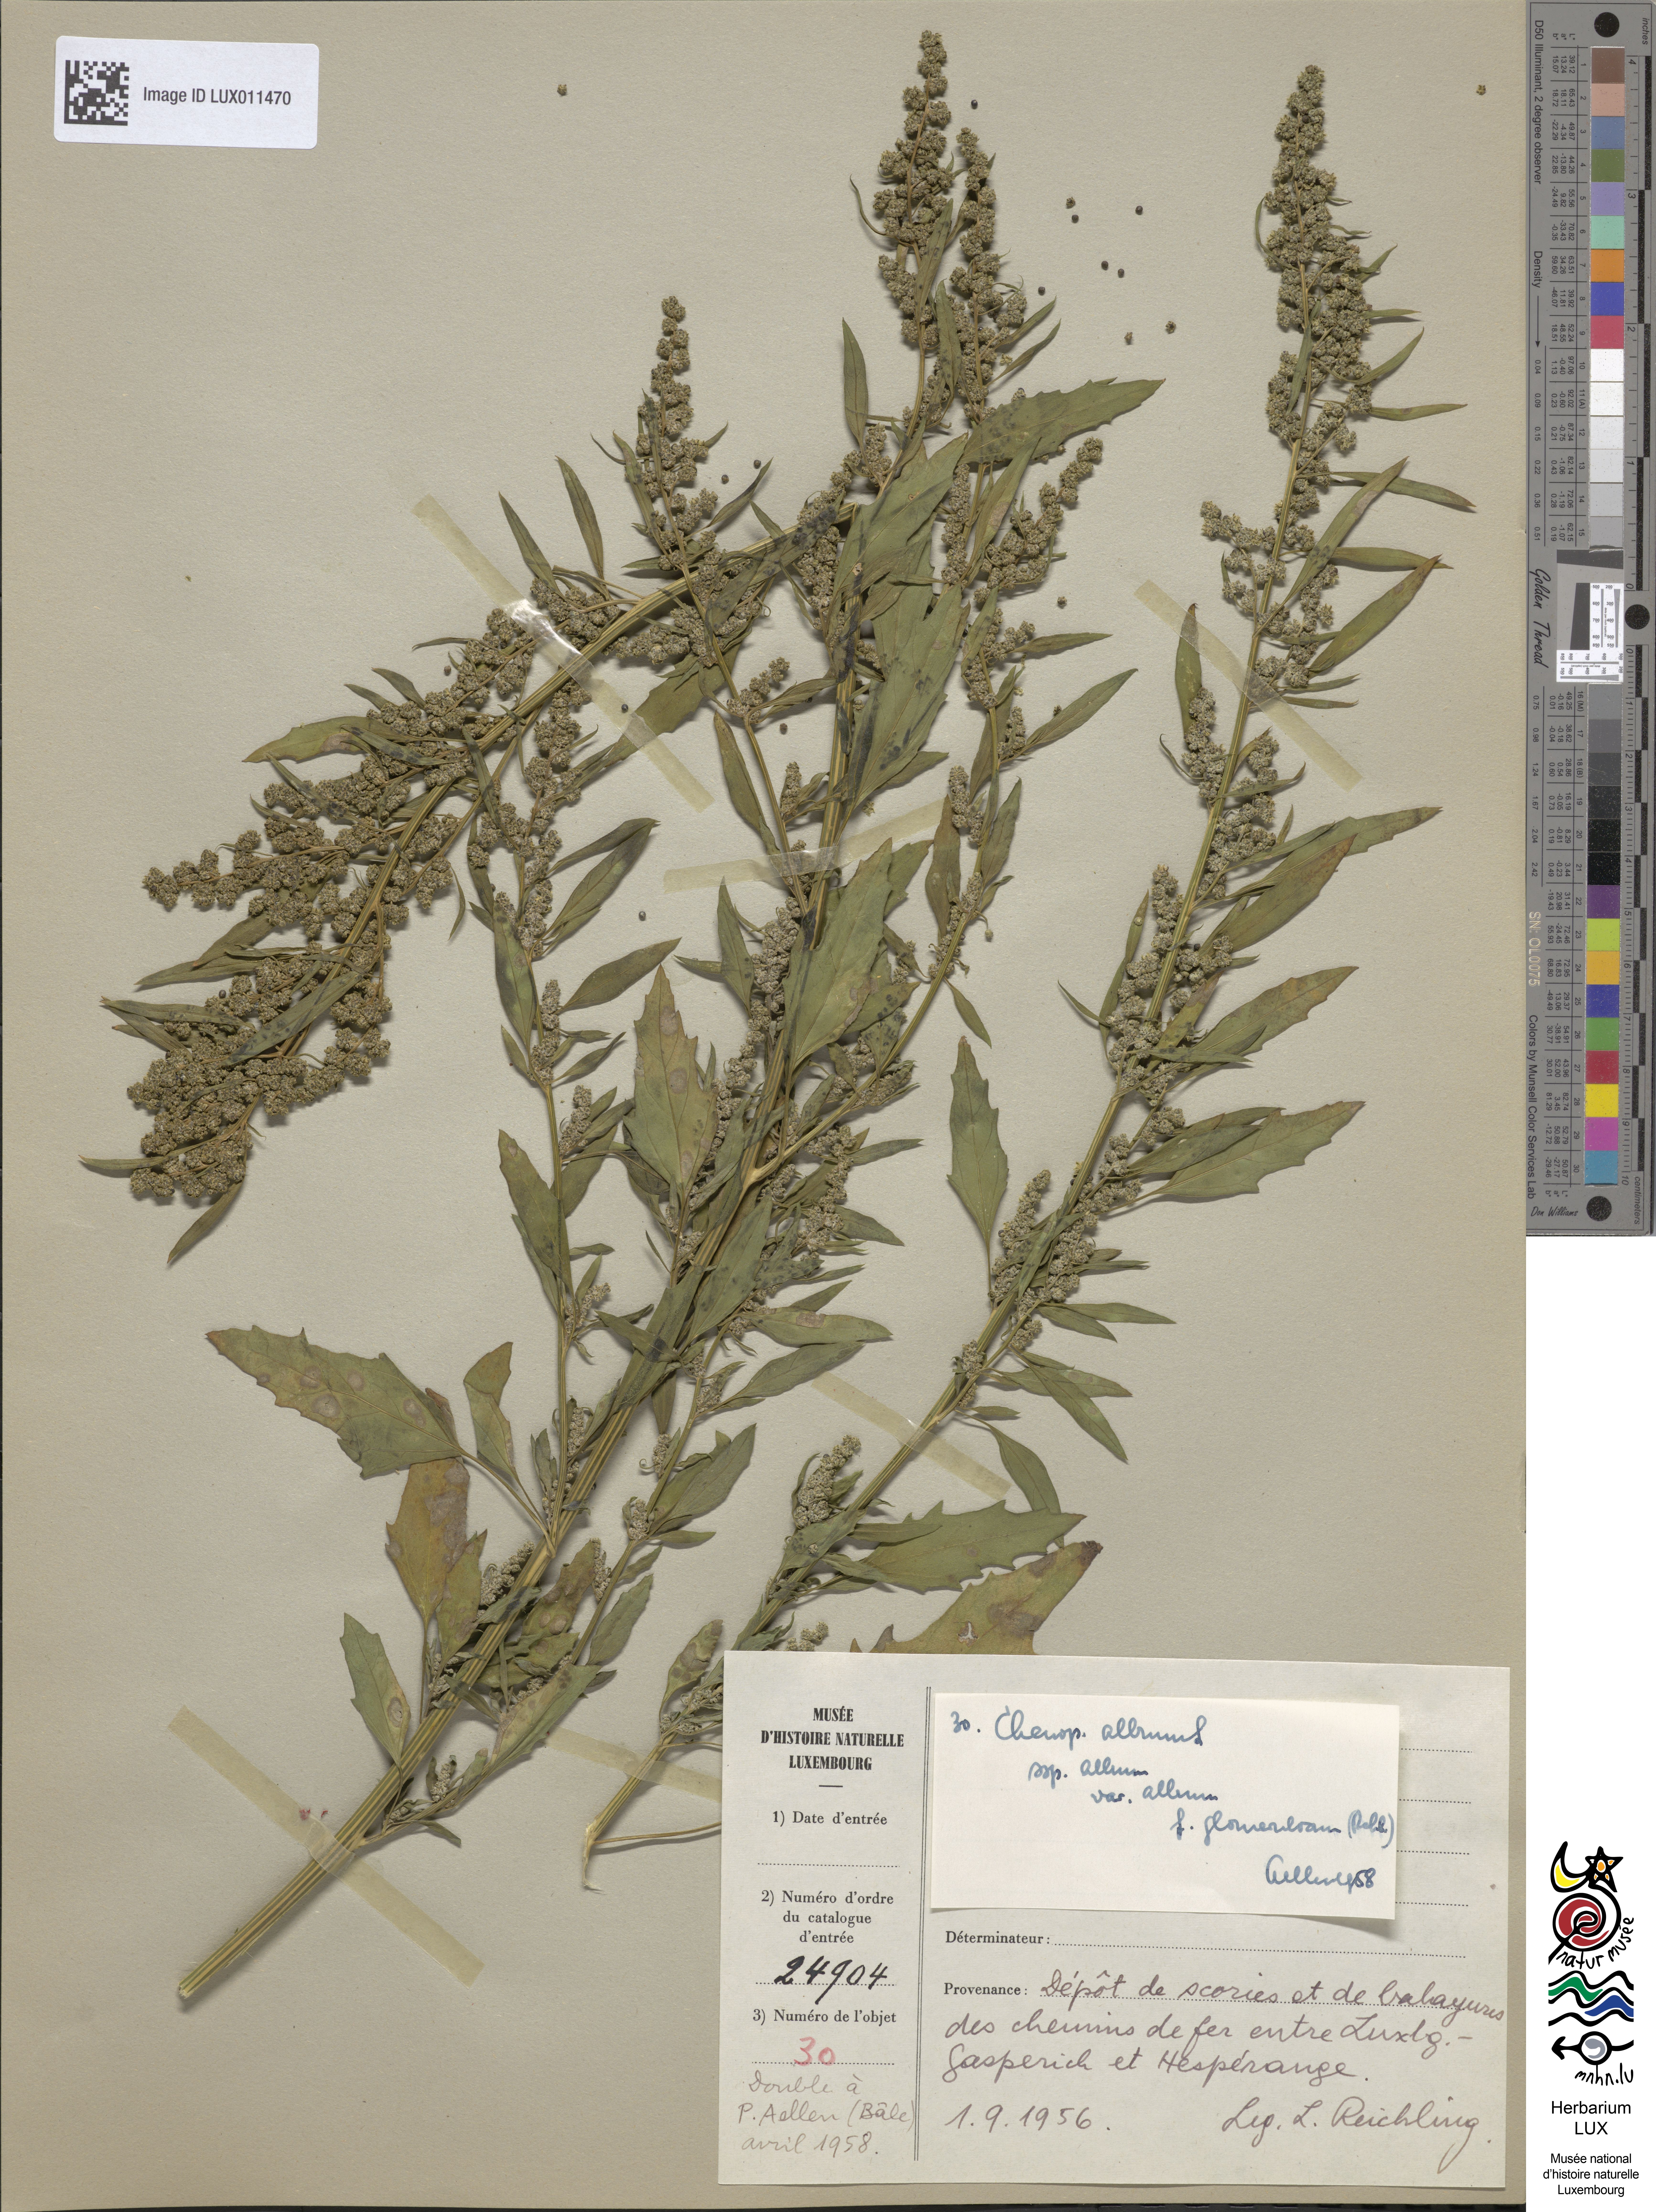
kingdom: Plantae
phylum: Tracheophyta
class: Magnoliopsida
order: Caryophyllales
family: Amaranthaceae
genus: Chenopodium
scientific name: Chenopodium album
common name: Fat-hen
